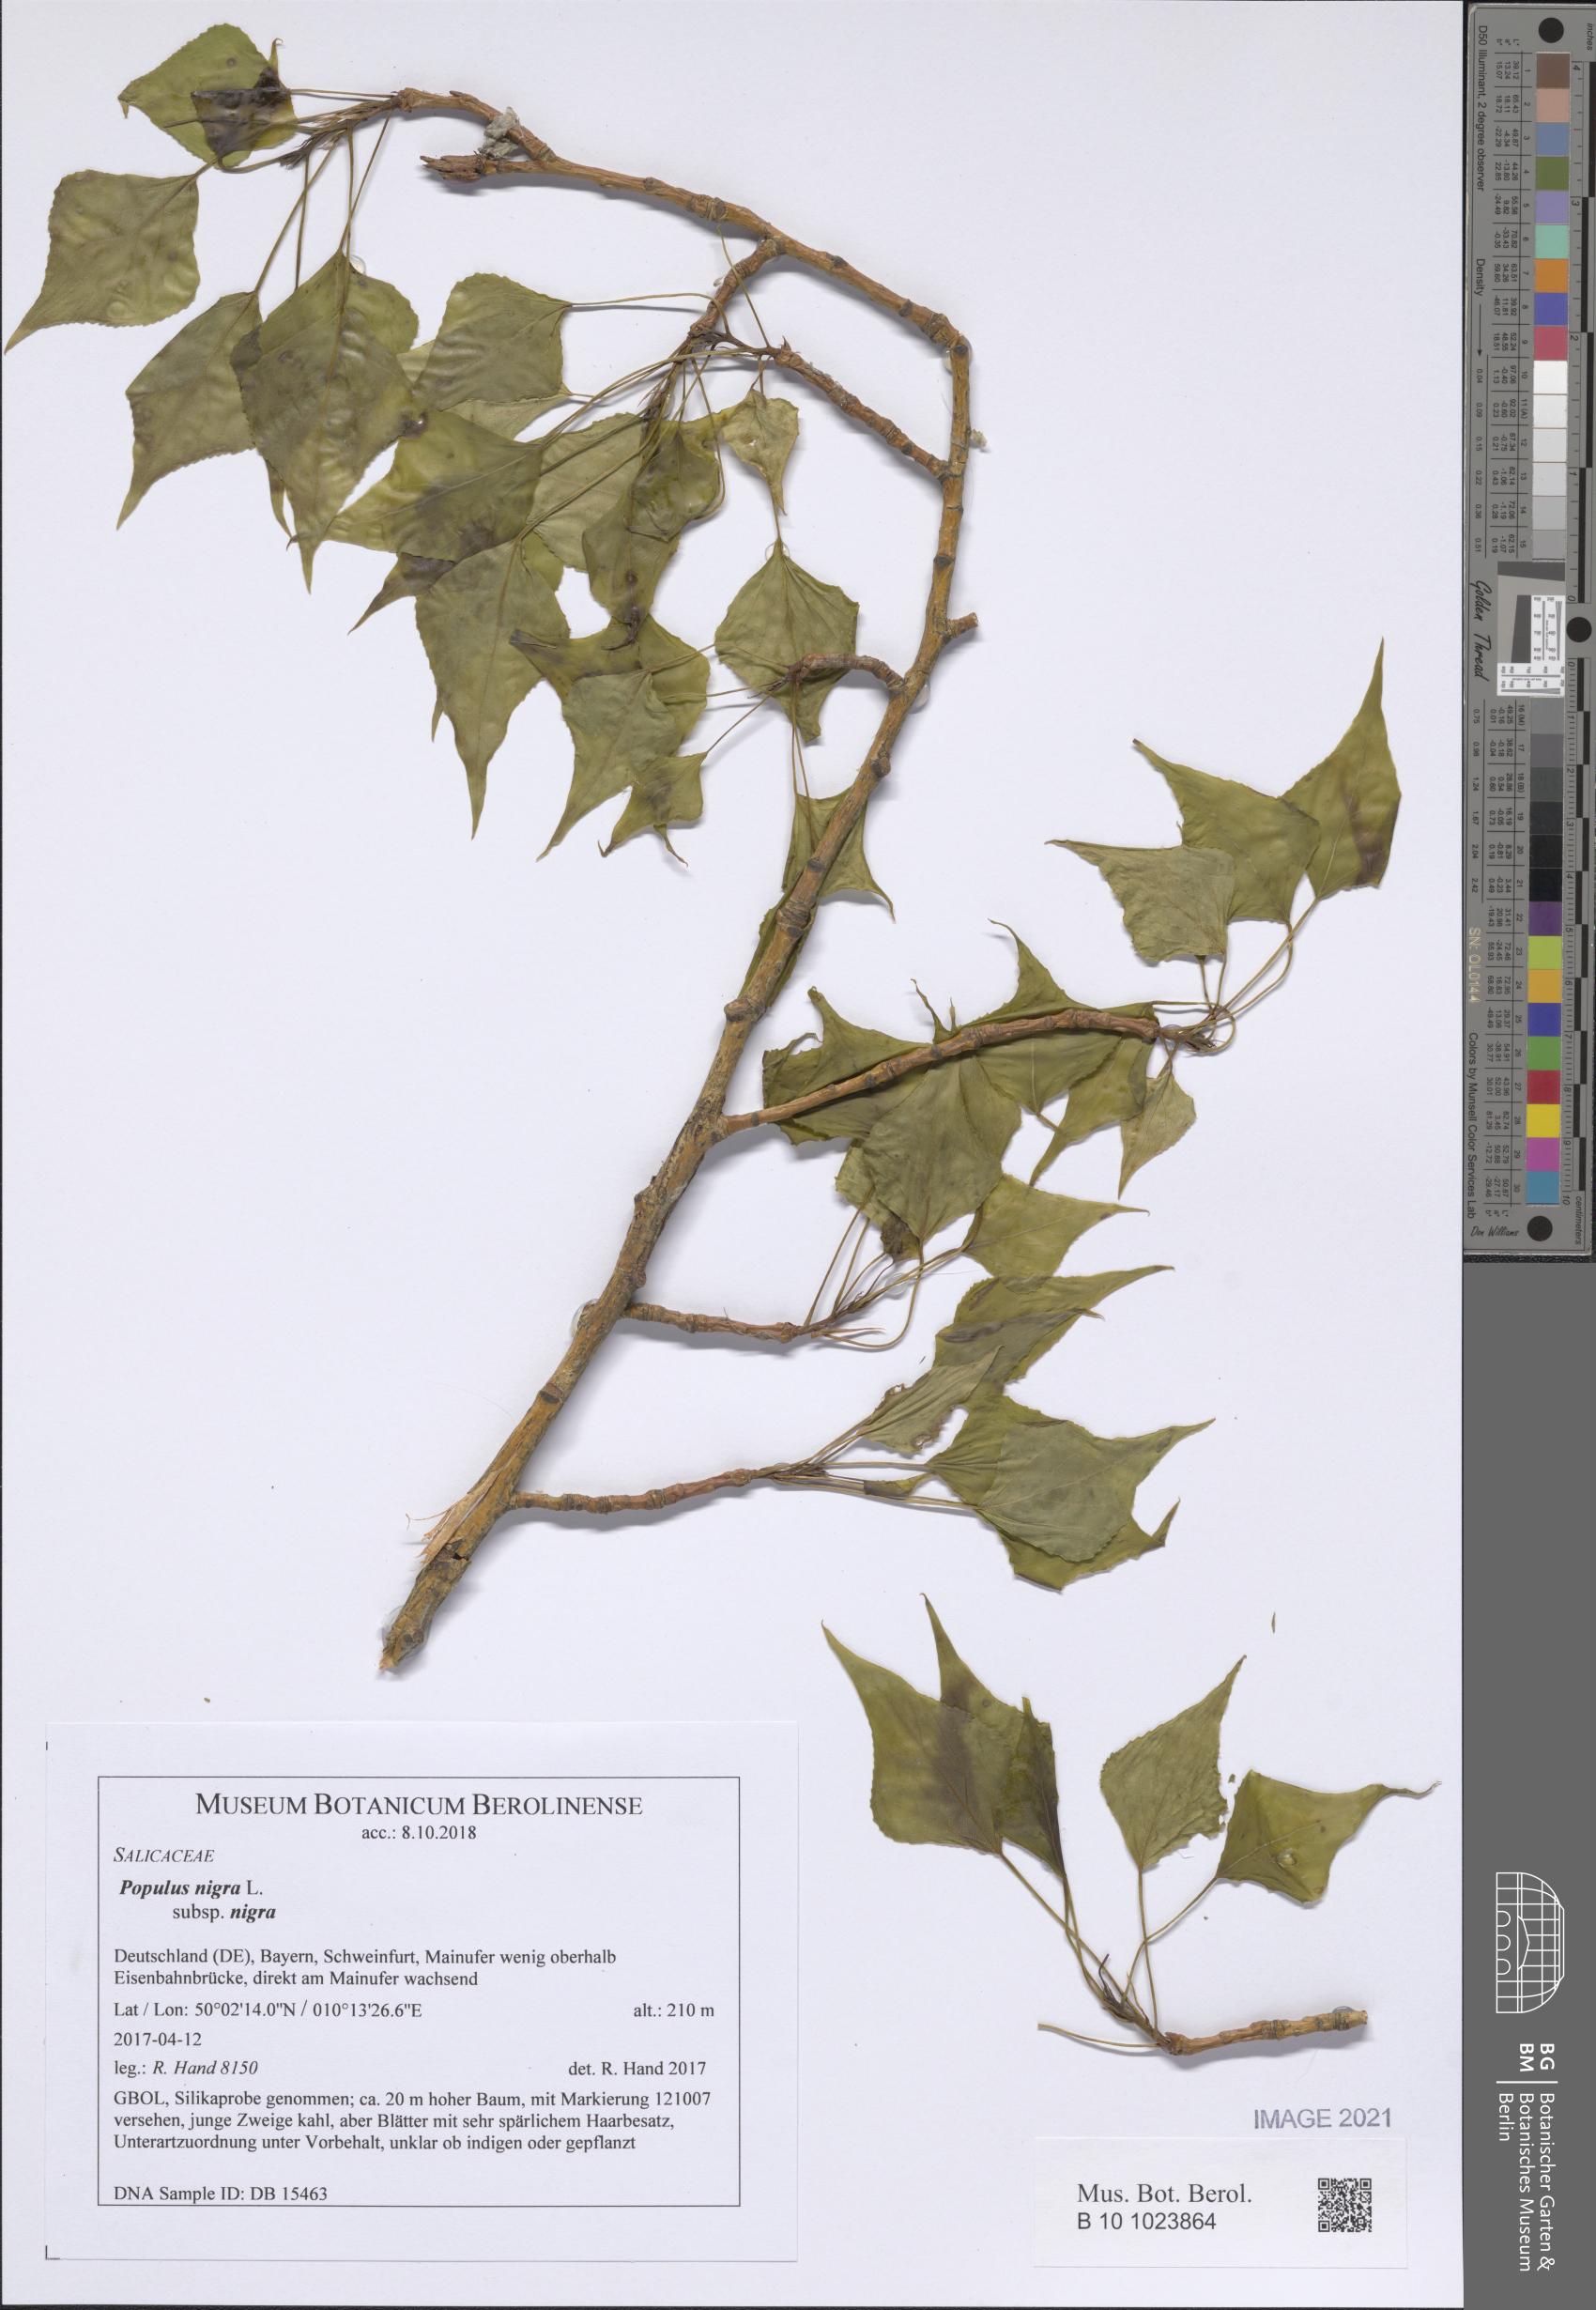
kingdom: Plantae
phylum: Tracheophyta
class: Magnoliopsida
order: Malpighiales
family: Salicaceae
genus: Populus
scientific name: Populus nigra
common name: Black poplar
